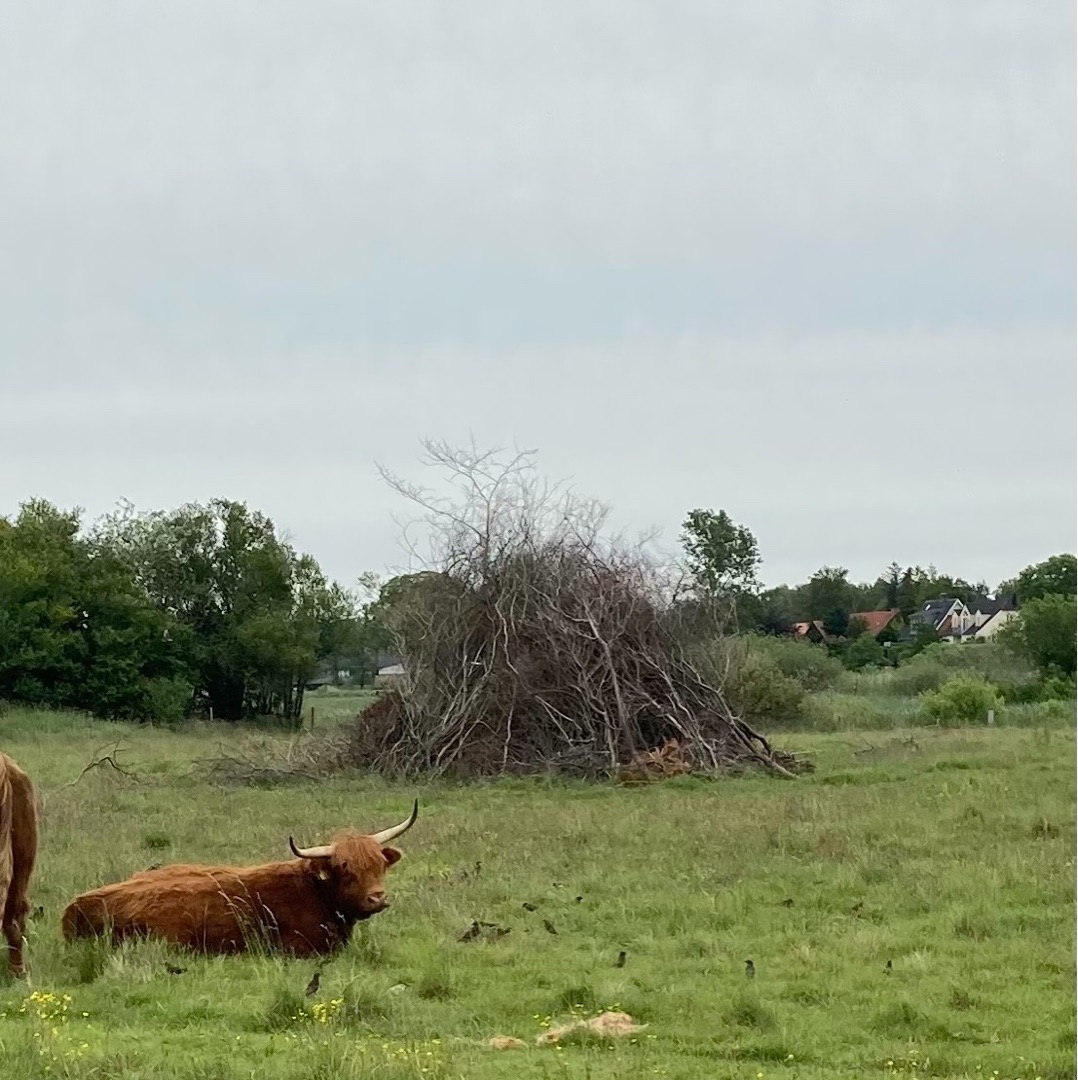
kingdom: Animalia
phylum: Chordata
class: Aves
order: Passeriformes
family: Sturnidae
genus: Sturnus
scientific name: Sturnus vulgaris
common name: Stær
